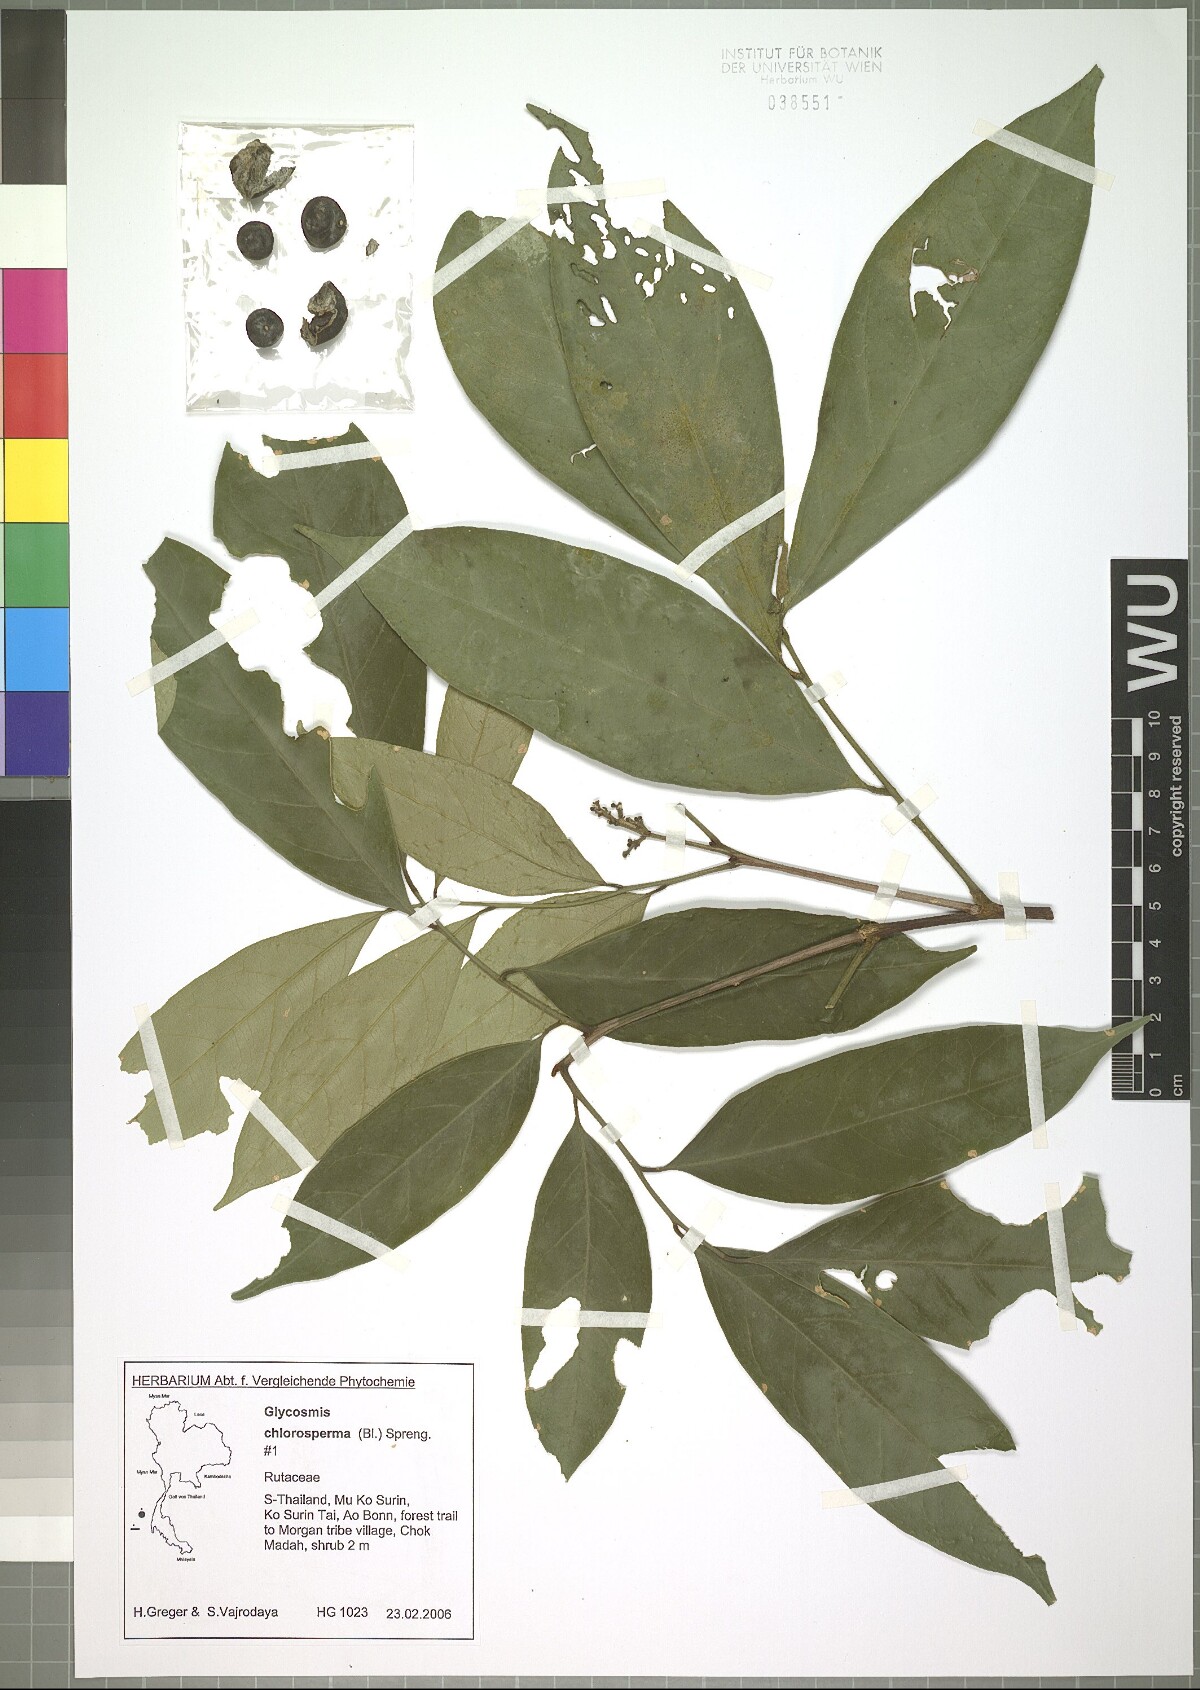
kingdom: Plantae
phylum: Tracheophyta
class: Magnoliopsida
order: Sapindales
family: Rutaceae
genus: Glycosmis
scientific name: Glycosmis chlorosperma
